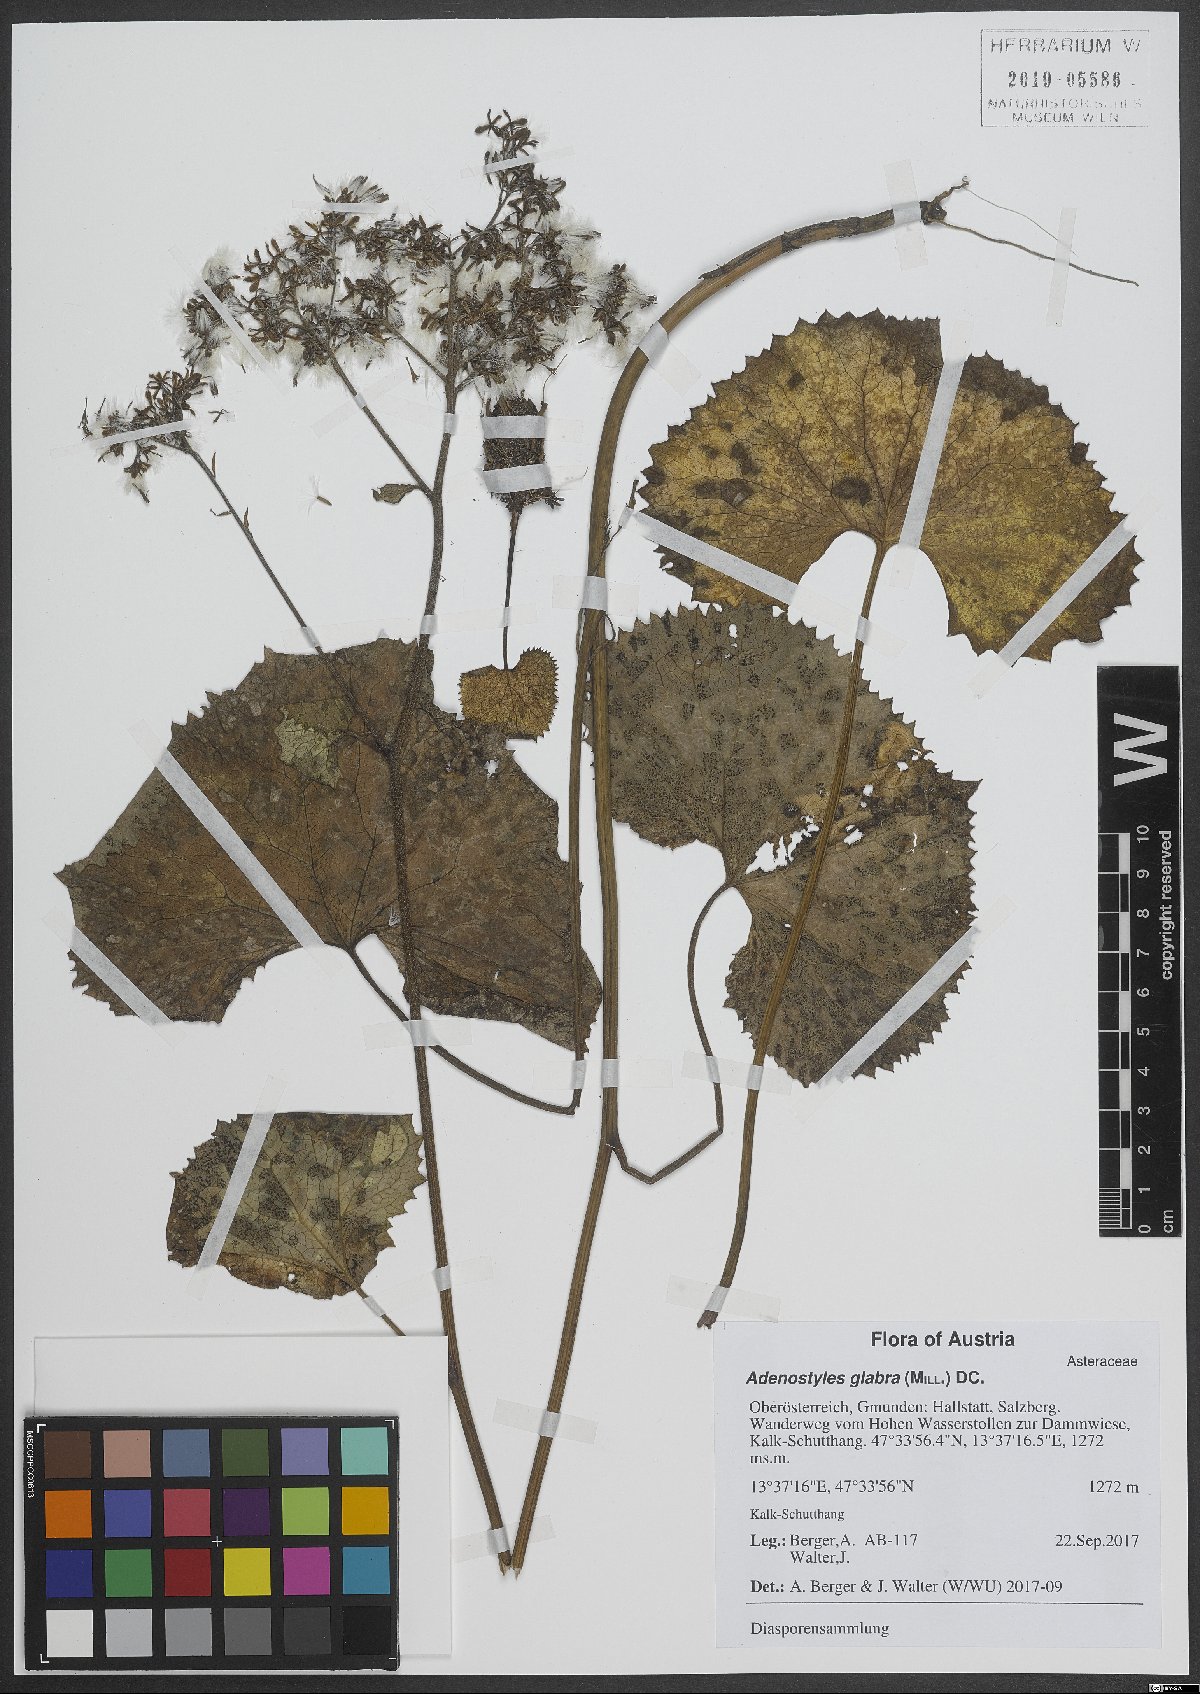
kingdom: Plantae
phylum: Tracheophyta
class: Magnoliopsida
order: Asterales
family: Asteraceae
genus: Adenostyles
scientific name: Adenostyles alpina
